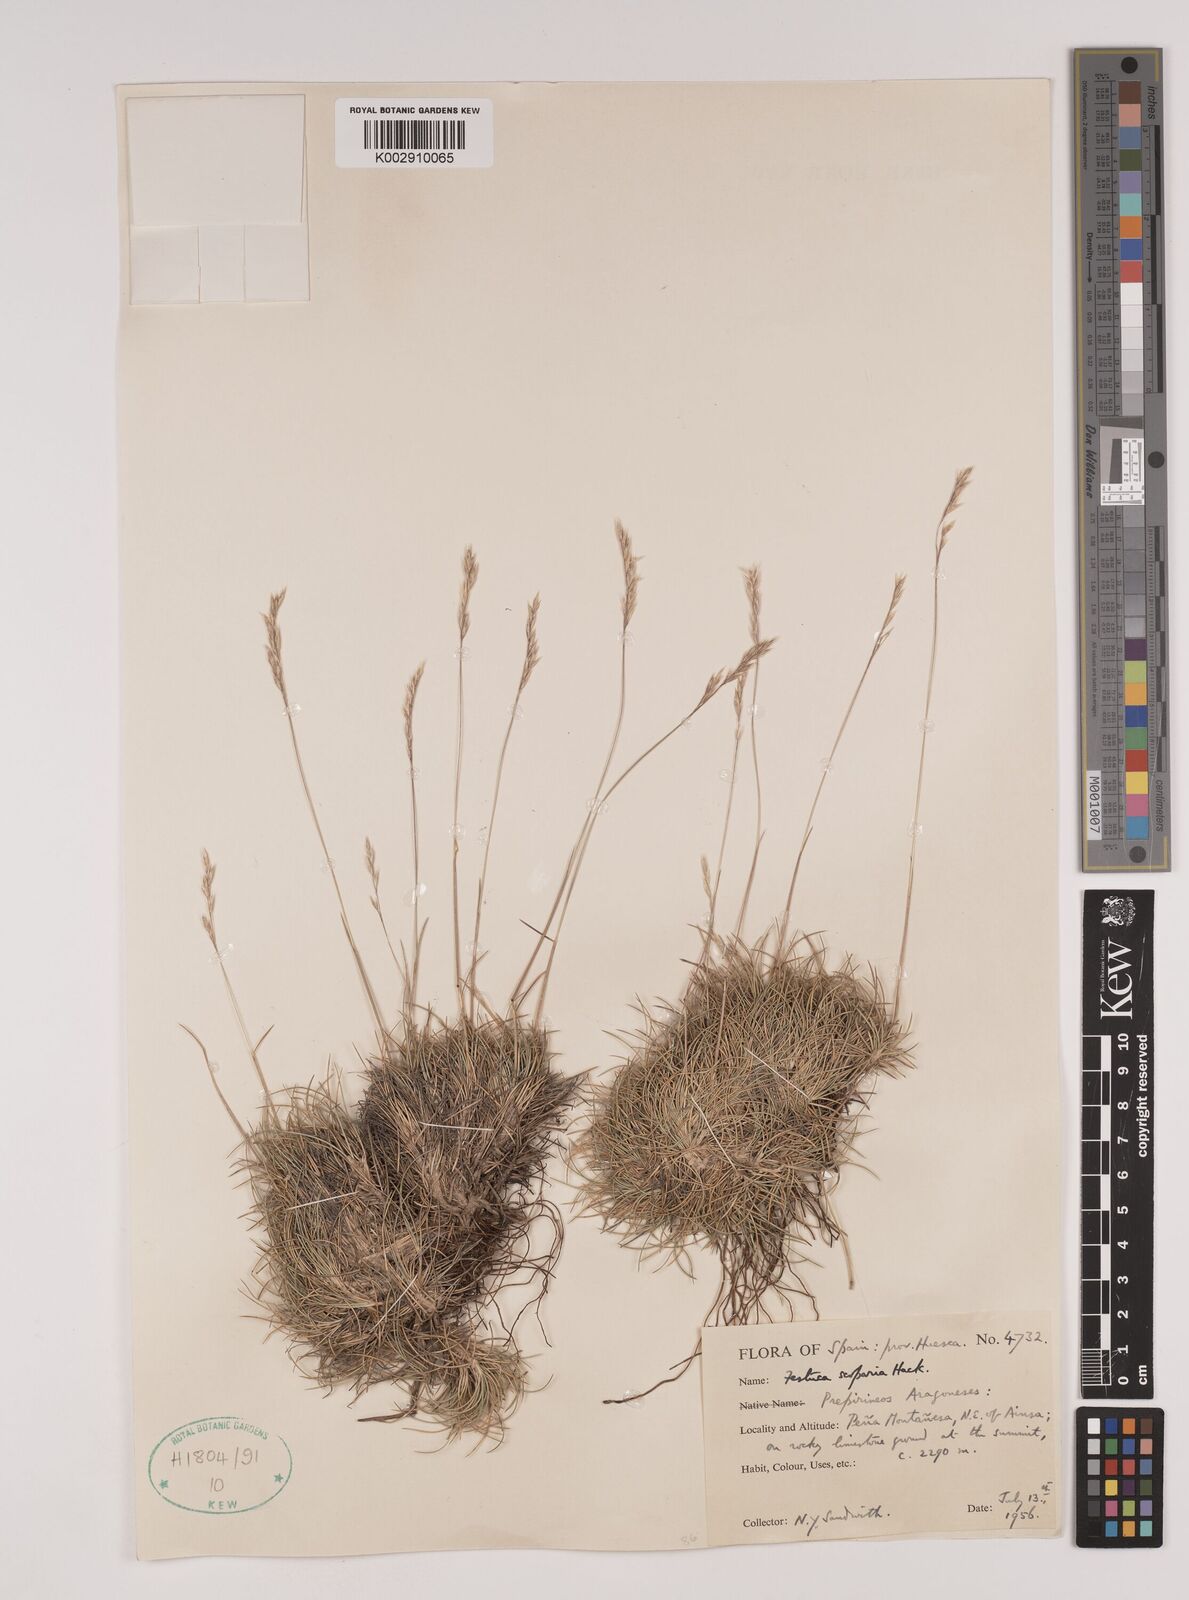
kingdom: Plantae
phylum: Tracheophyta
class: Liliopsida
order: Poales
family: Poaceae
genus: Festuca
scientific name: Festuca gautieri
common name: Spiky fescue
